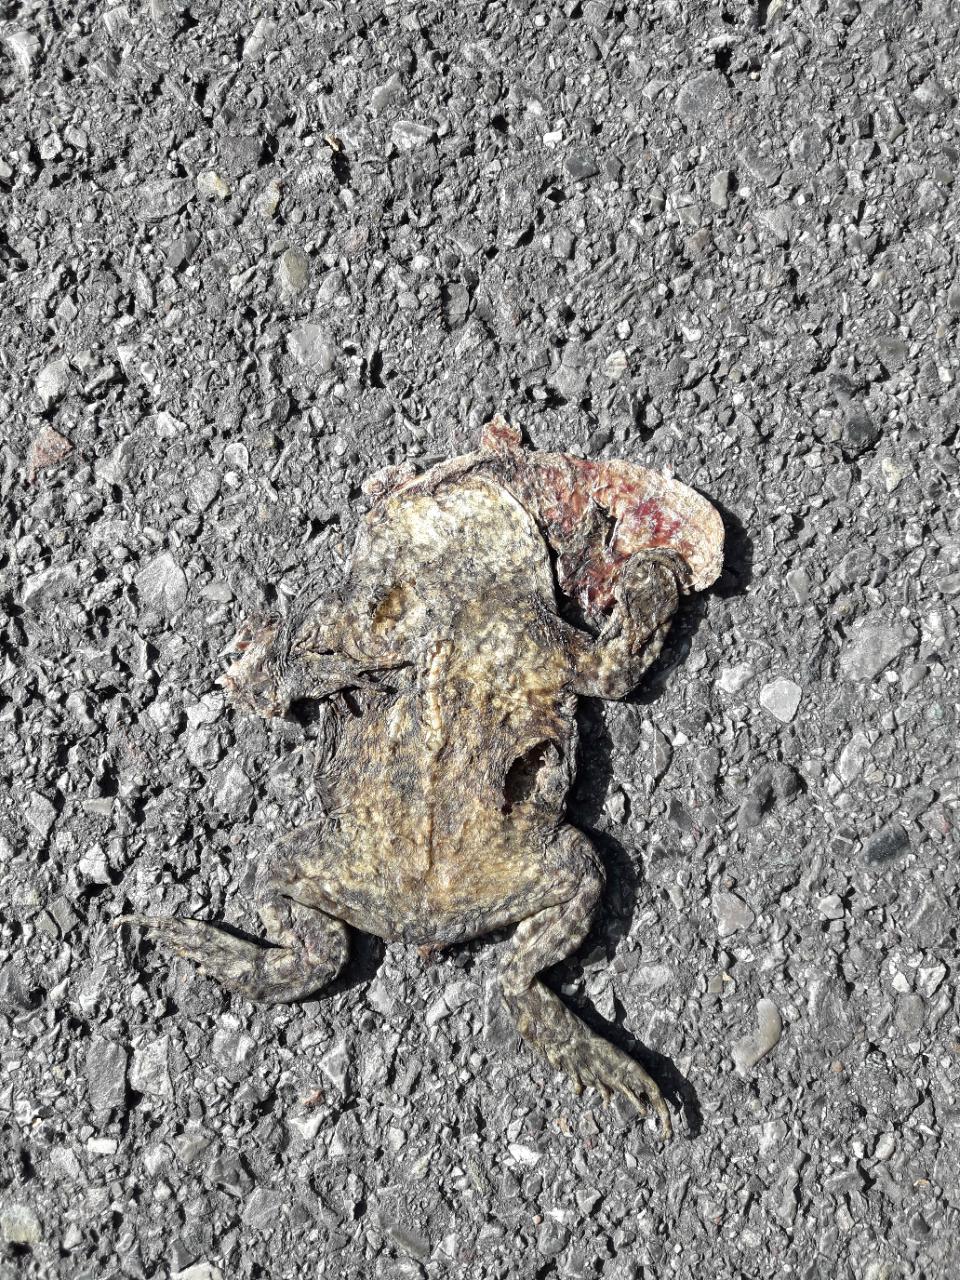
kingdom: Animalia
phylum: Chordata
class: Amphibia
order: Anura
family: Bufonidae
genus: Bufo
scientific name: Bufo bufo
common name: Common toad
